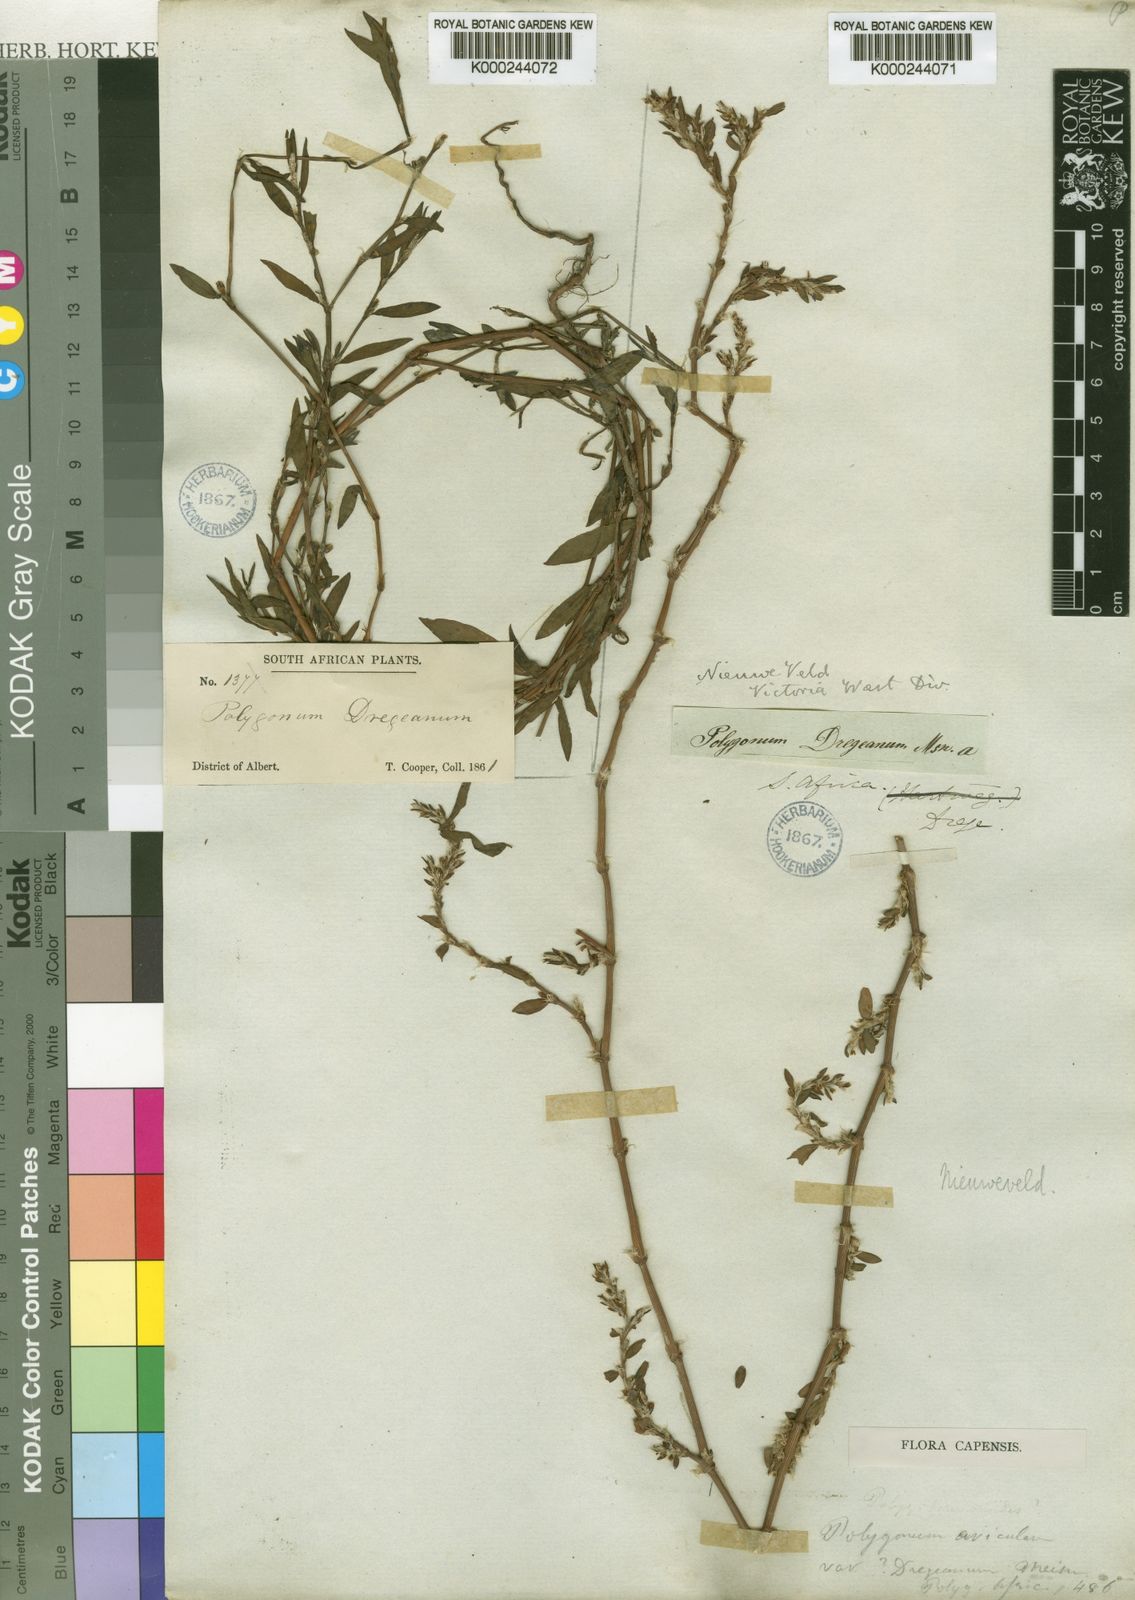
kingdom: Plantae
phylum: Tracheophyta
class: Magnoliopsida
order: Caryophyllales
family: Polygonaceae
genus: Polygonum
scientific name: Polygonum aviculare
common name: Prostrate knotweed
